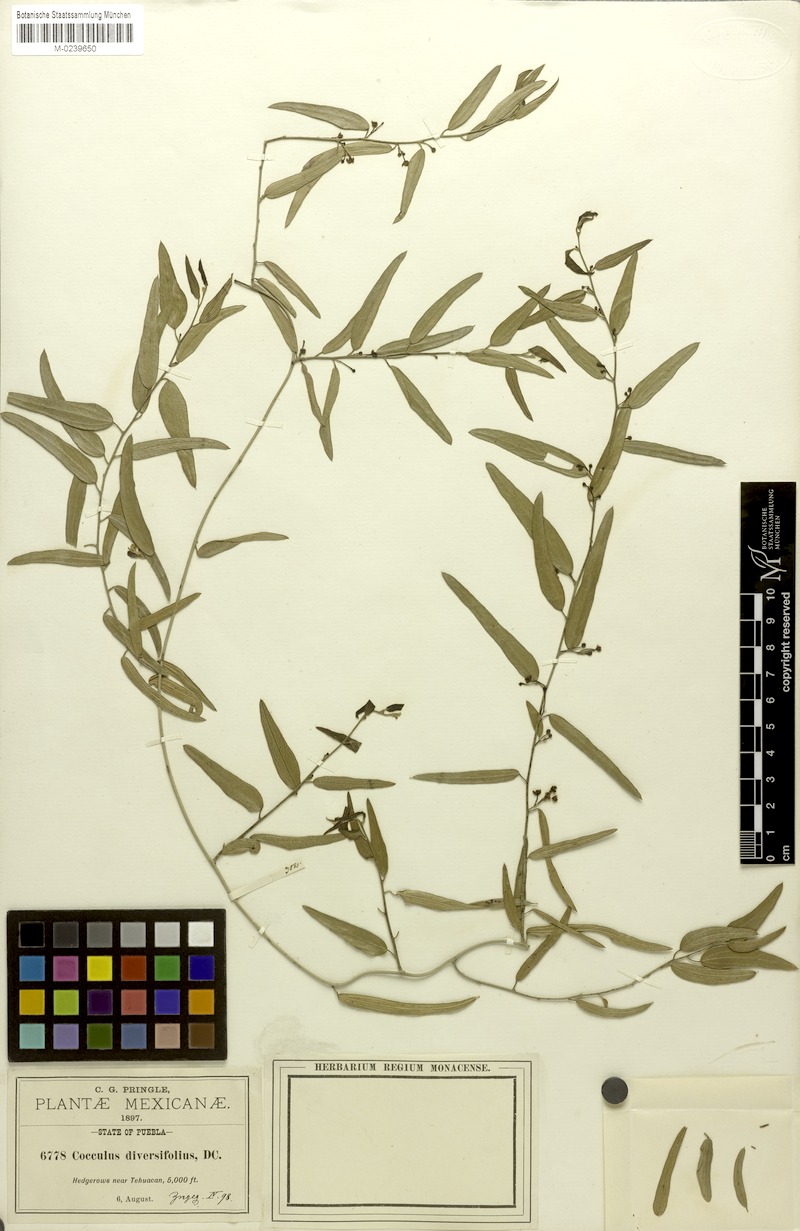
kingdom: Plantae
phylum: Tracheophyta
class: Magnoliopsida
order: Ranunculales
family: Menispermaceae
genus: Cocculus
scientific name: Cocculus diversifolius
